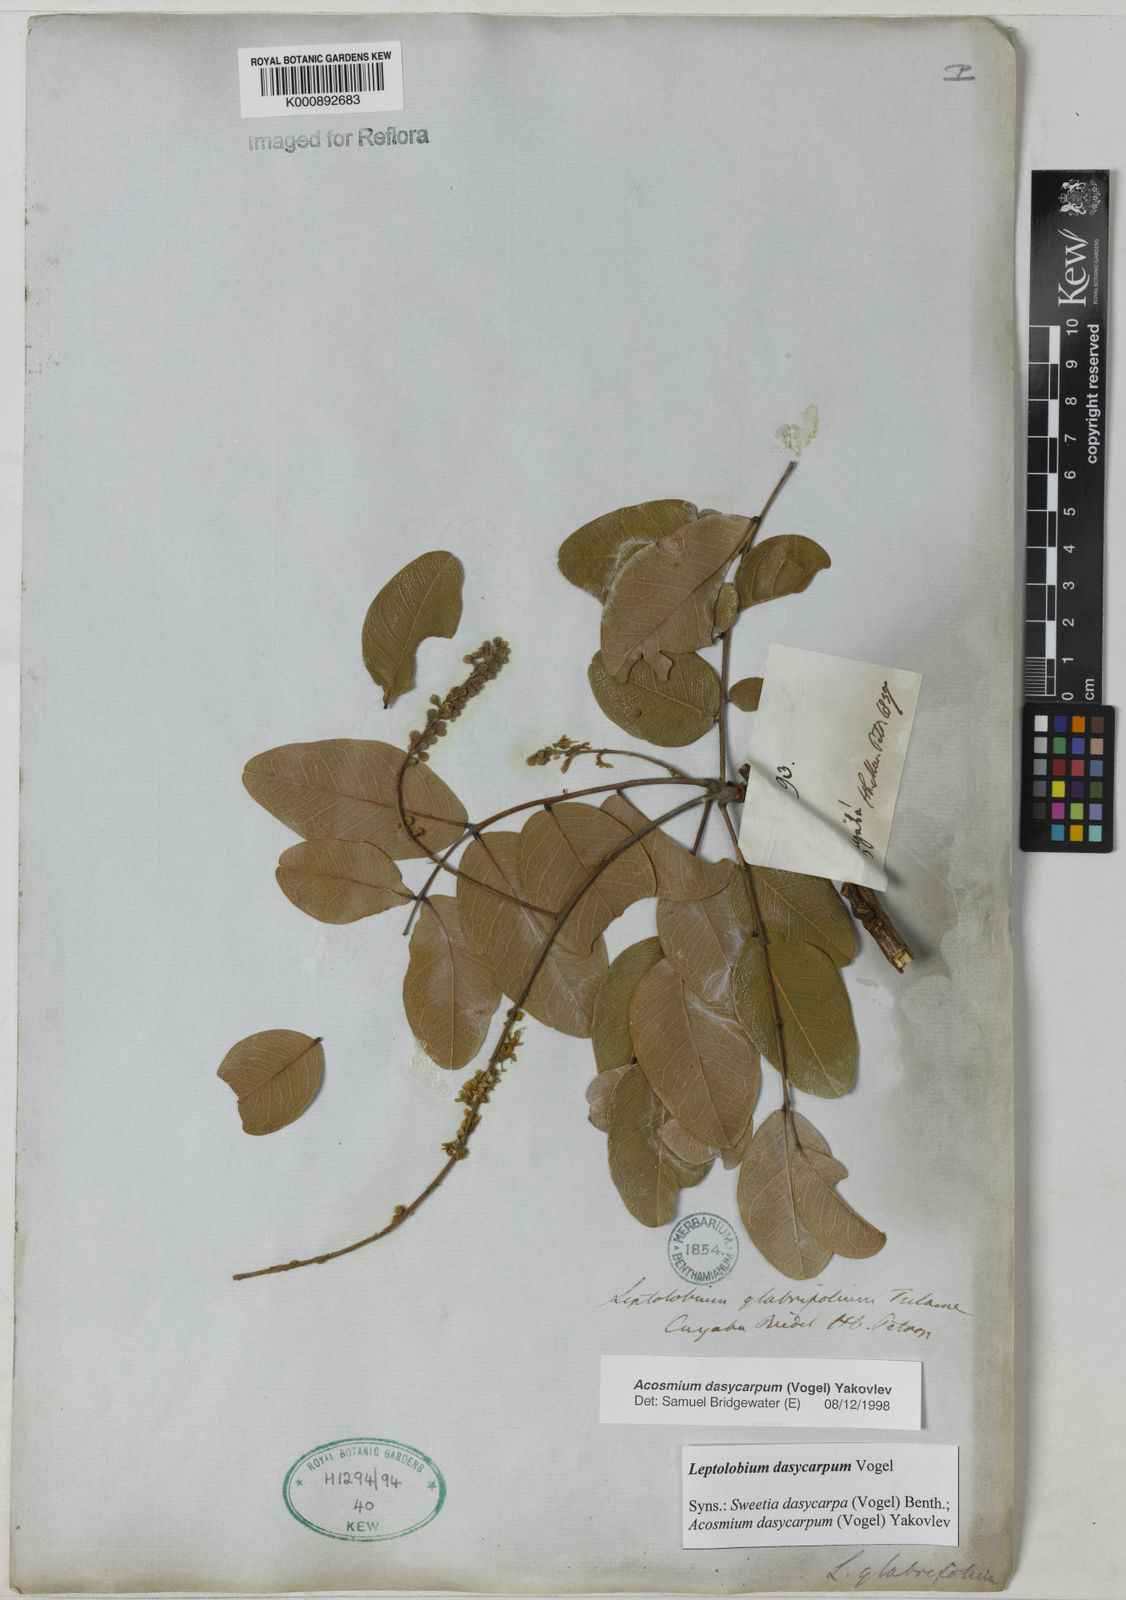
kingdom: Plantae
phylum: Tracheophyta
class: Magnoliopsida
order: Fabales
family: Fabaceae
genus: Leptolobium
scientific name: Leptolobium dasycarpum
